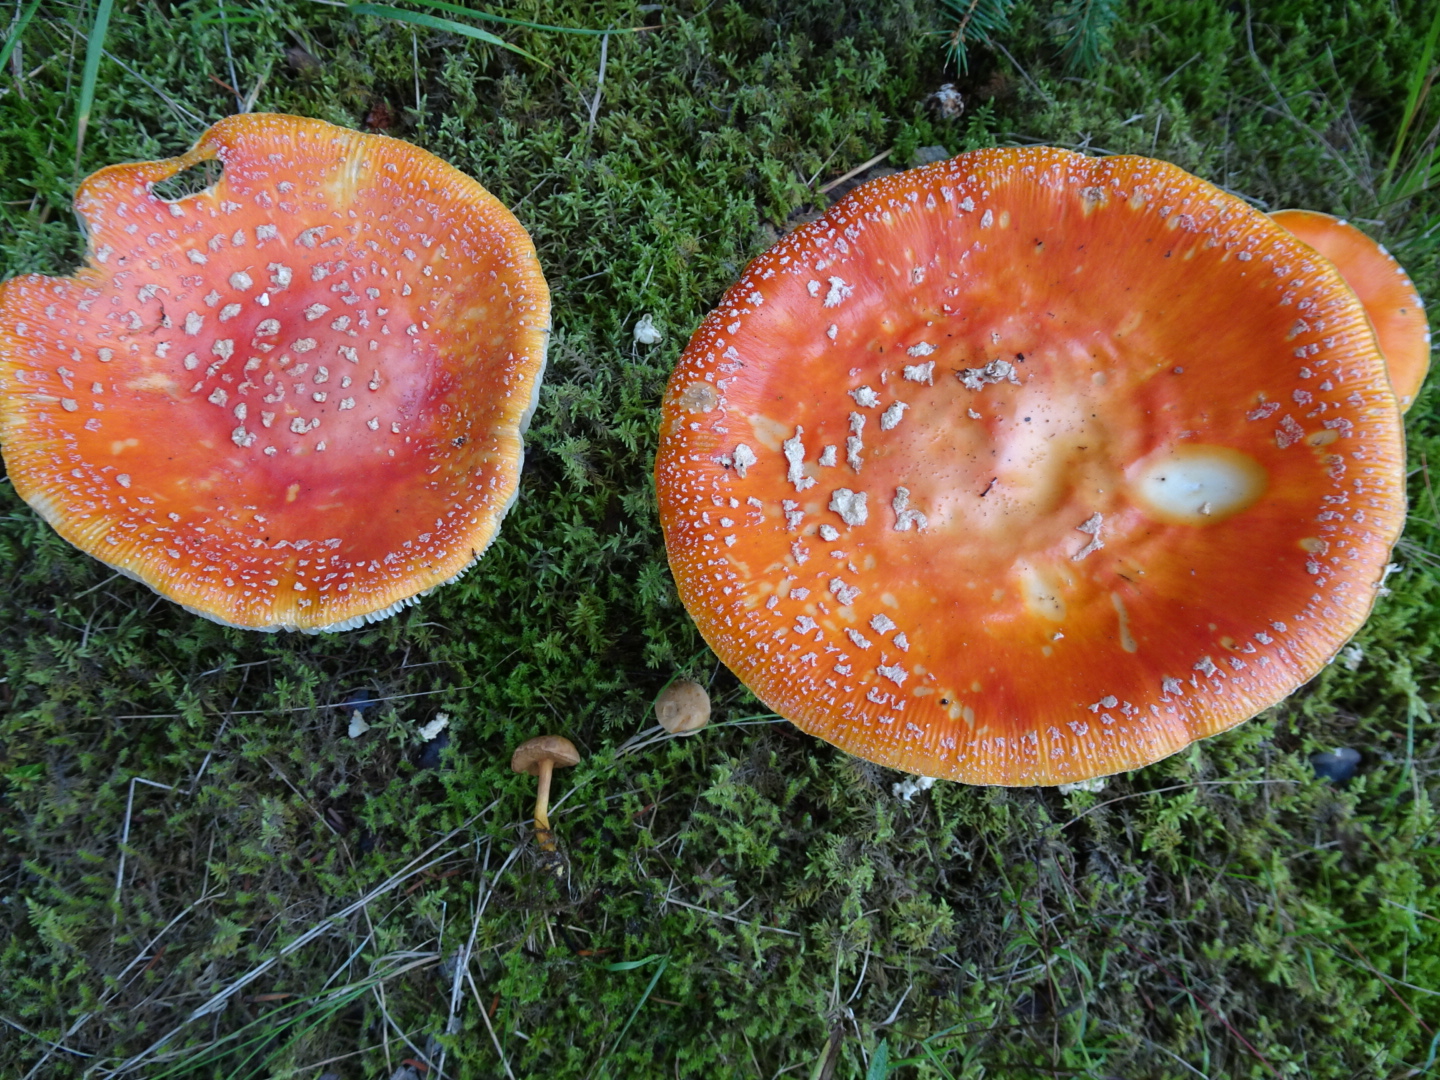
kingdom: Fungi
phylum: Basidiomycota
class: Agaricomycetes
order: Agaricales
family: Amanitaceae
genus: Amanita
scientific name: Amanita muscaria
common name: rød fluesvamp
